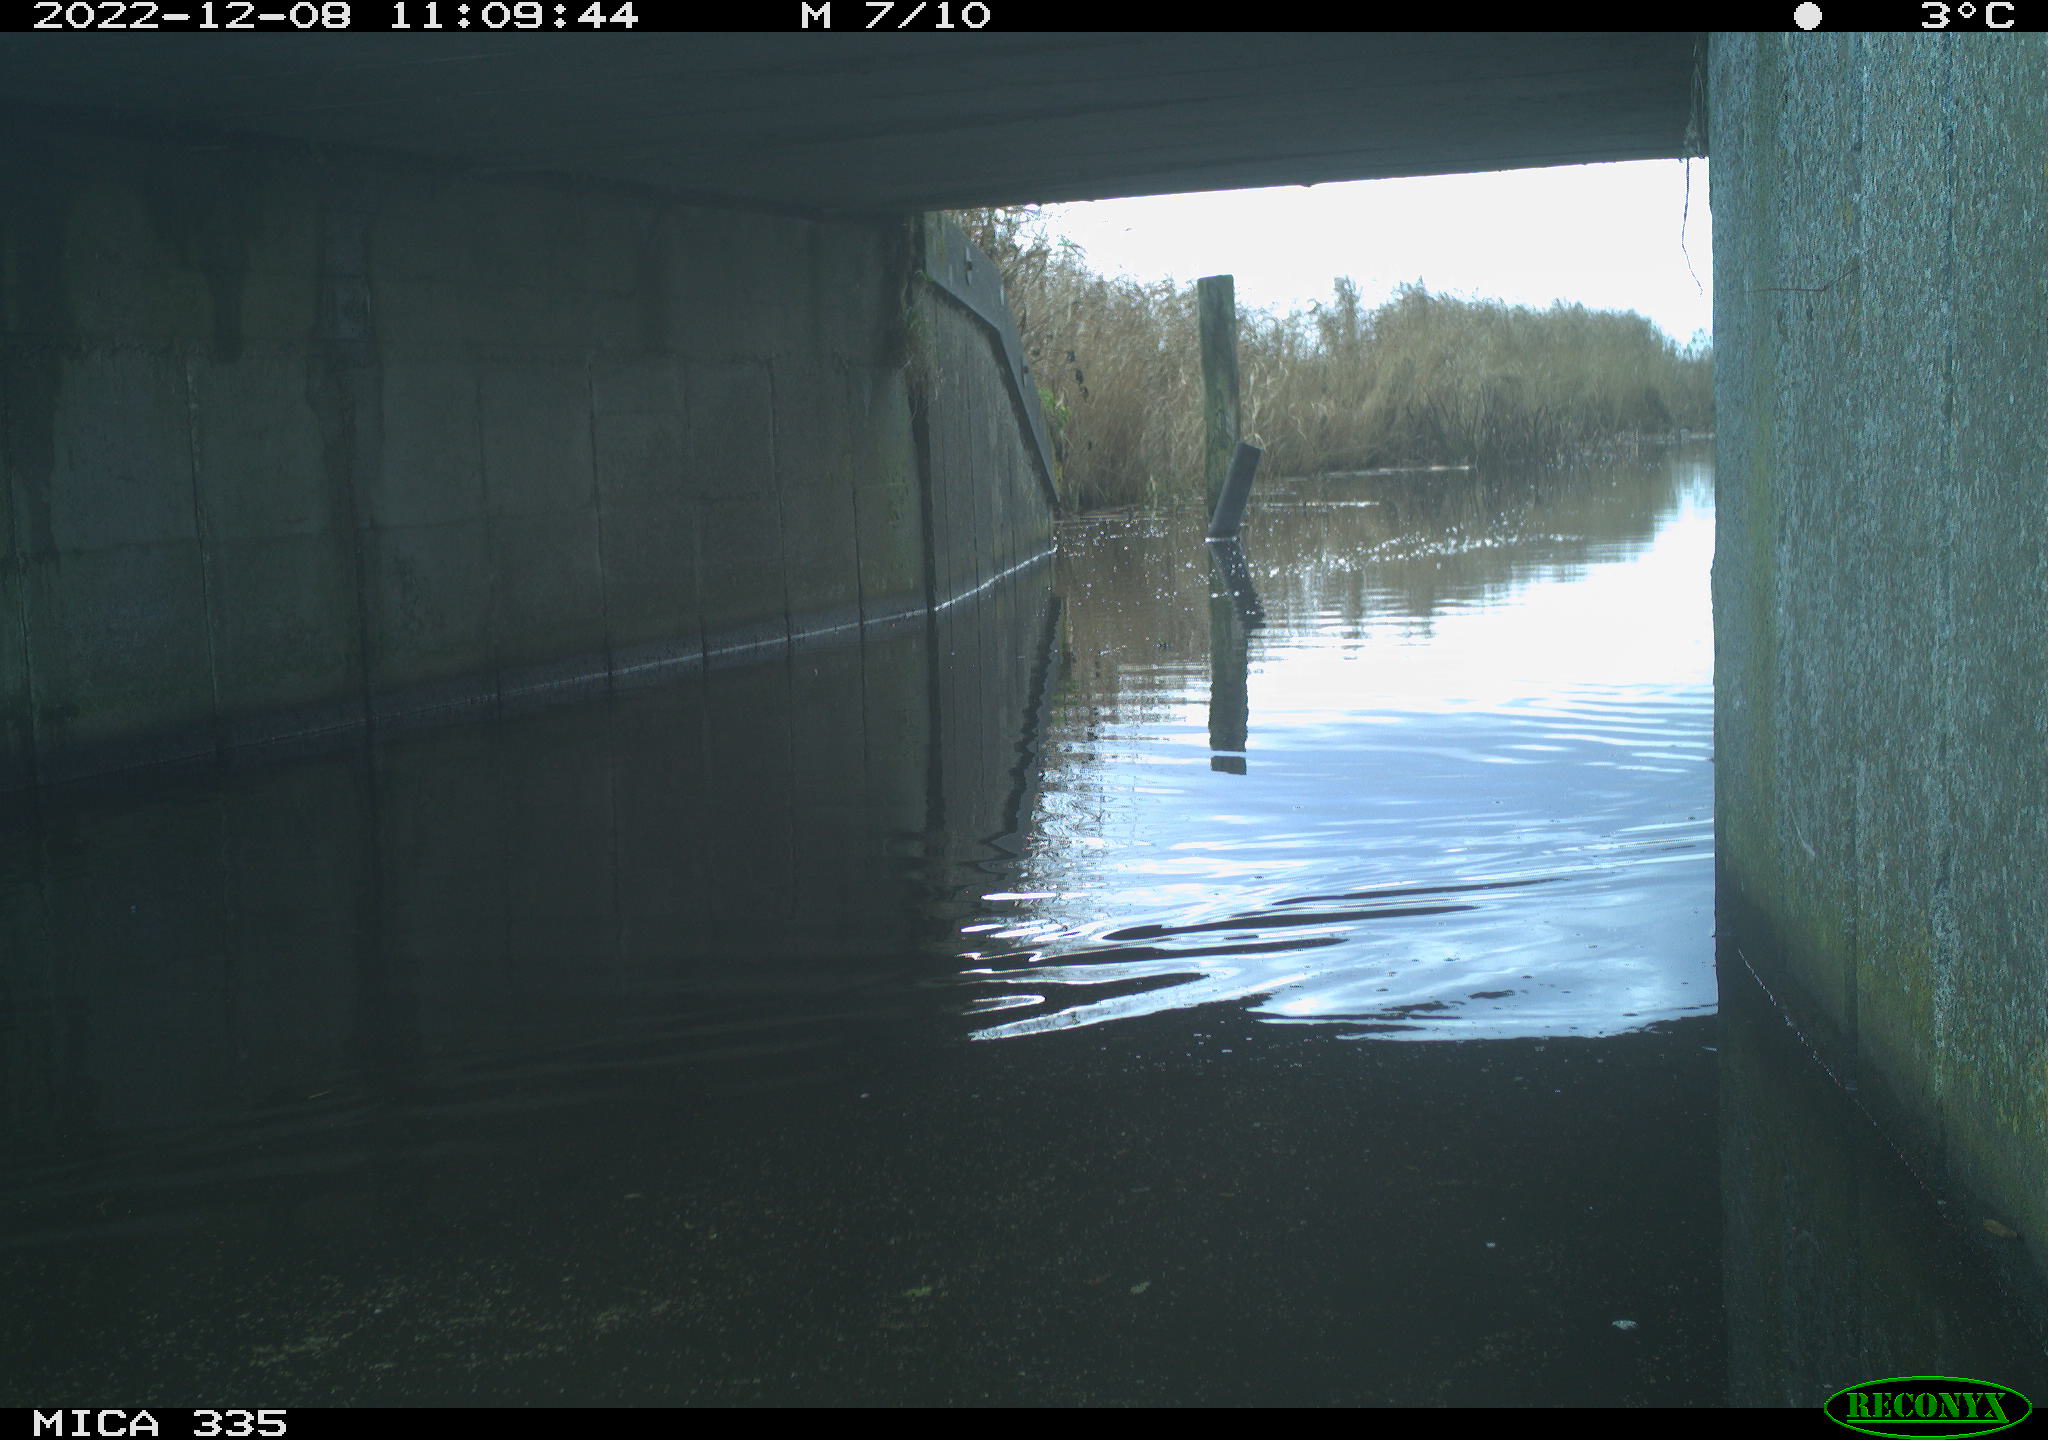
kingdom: Animalia
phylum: Chordata
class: Aves
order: Anseriformes
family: Anatidae
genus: Anas
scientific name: Anas
